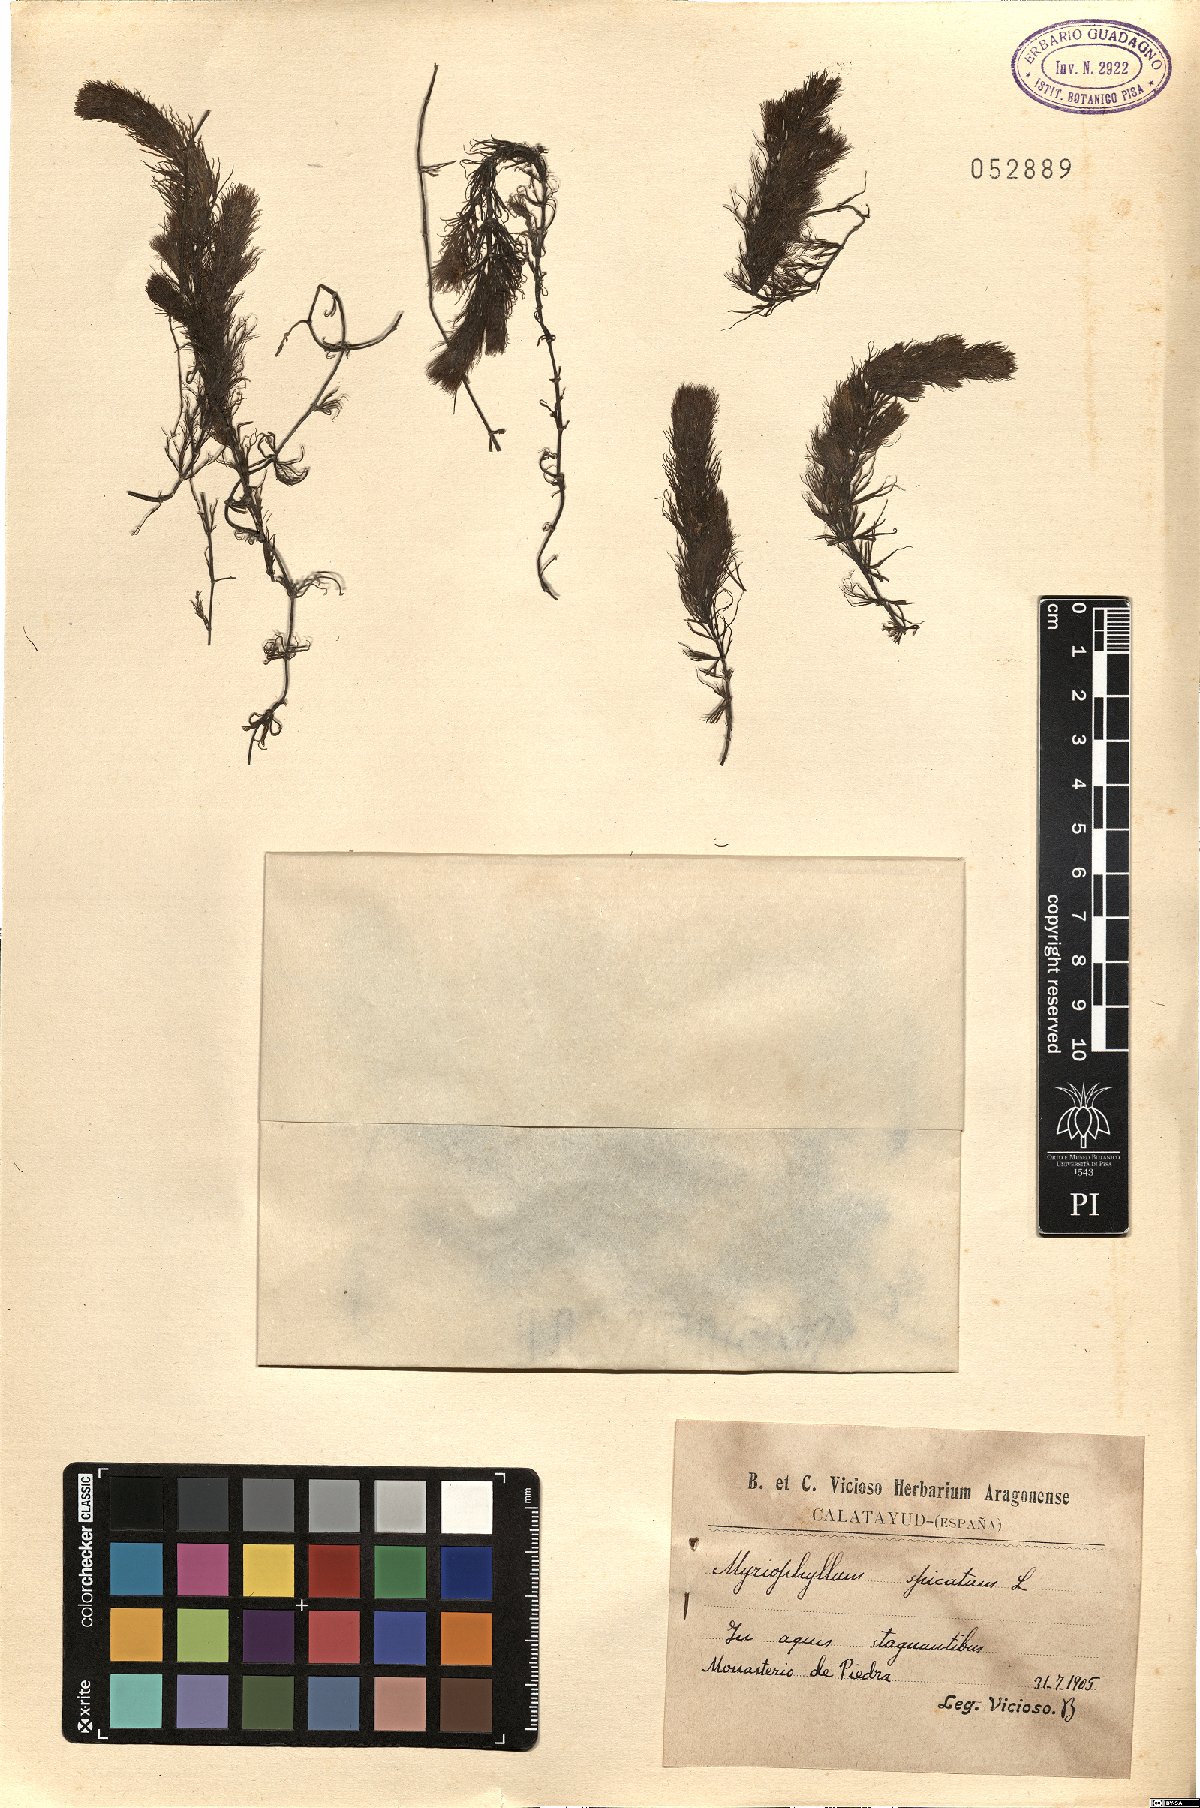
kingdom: Plantae
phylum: Tracheophyta
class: Magnoliopsida
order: Saxifragales
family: Haloragaceae
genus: Myriophyllum
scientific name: Myriophyllum spicatum
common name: Spiked water-milfoil
